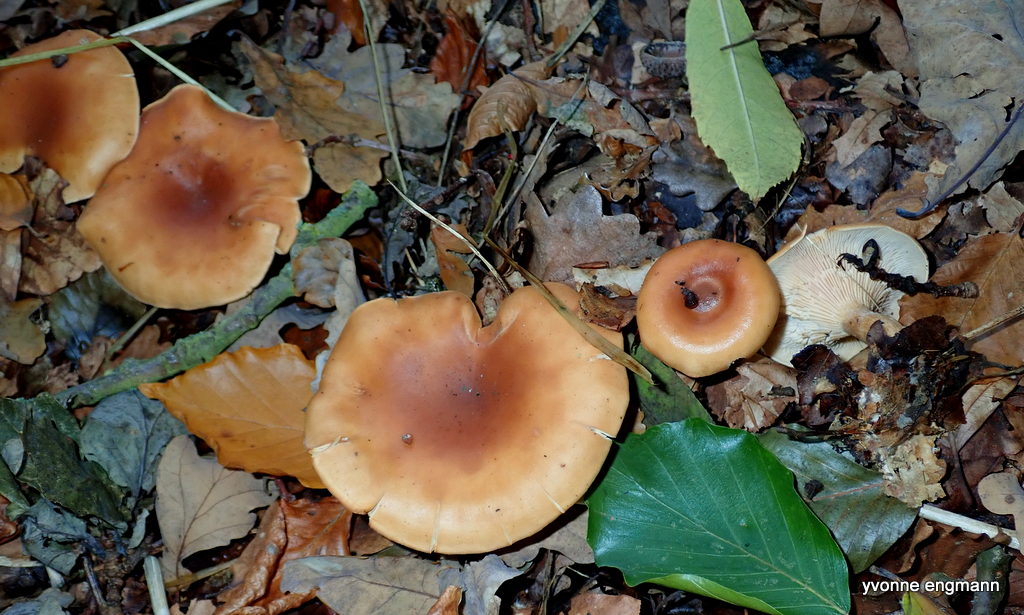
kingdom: Fungi
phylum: Basidiomycota
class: Agaricomycetes
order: Agaricales
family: Tricholomataceae
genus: Paralepista
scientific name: Paralepista flaccida
